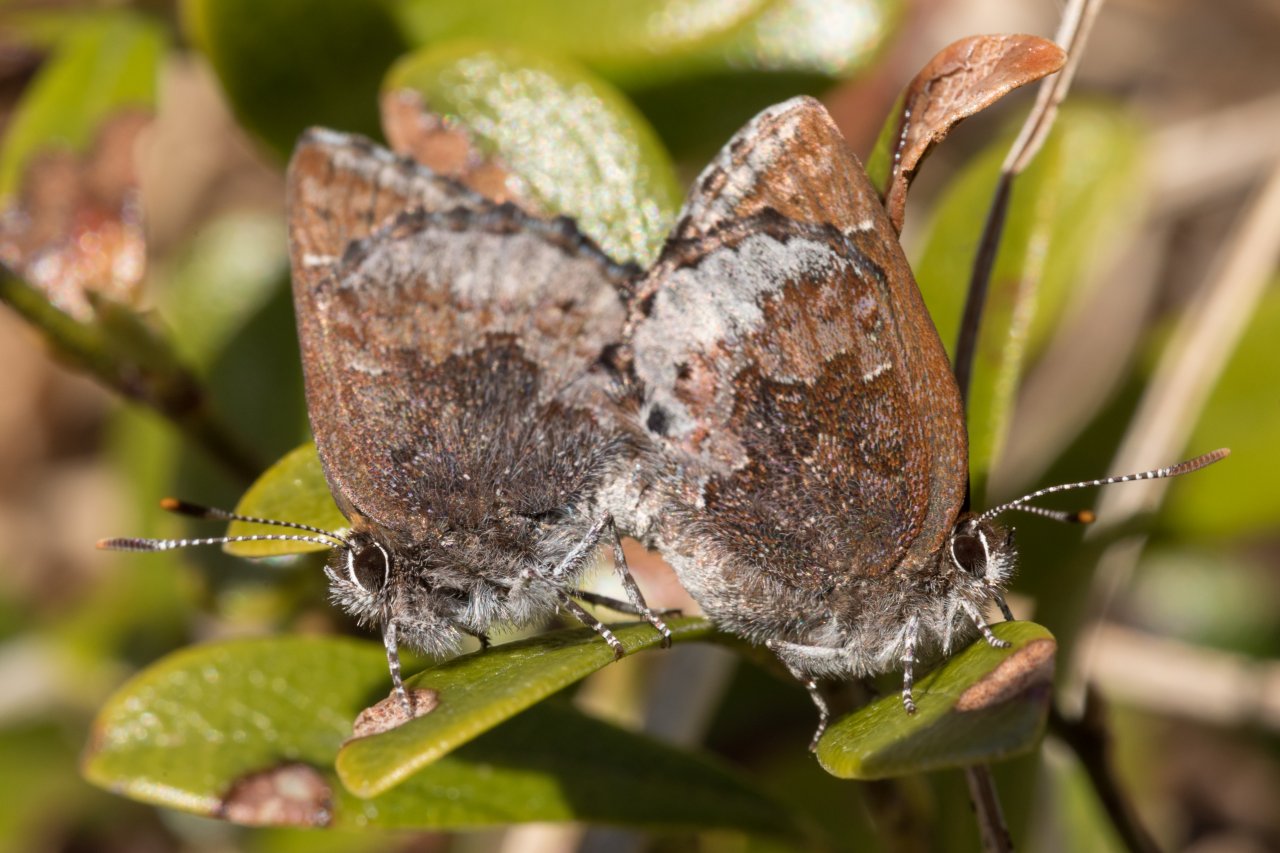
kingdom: Animalia
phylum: Arthropoda
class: Insecta
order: Lepidoptera
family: Lycaenidae
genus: Callophrys
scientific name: Callophrys polios
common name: Hoary Elfin
